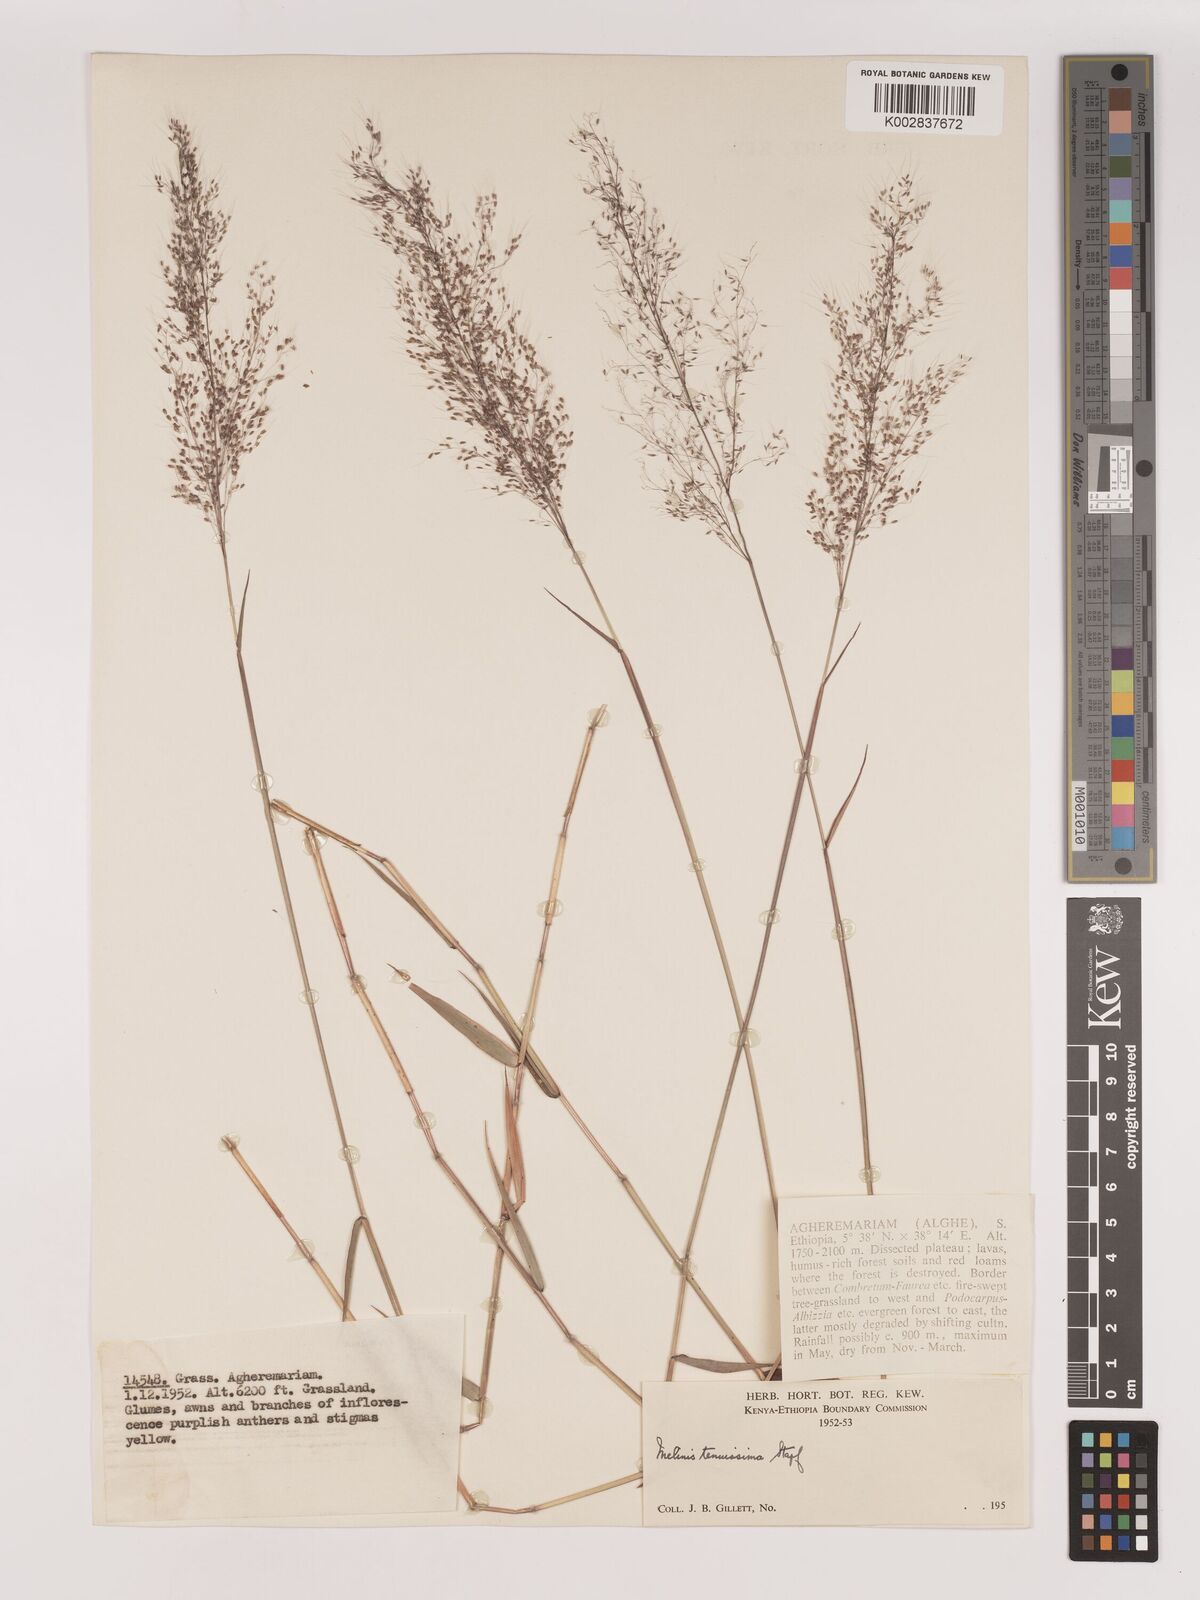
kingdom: Plantae
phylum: Tracheophyta
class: Liliopsida
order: Poales
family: Poaceae
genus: Melinis
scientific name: Melinis tenuissima
